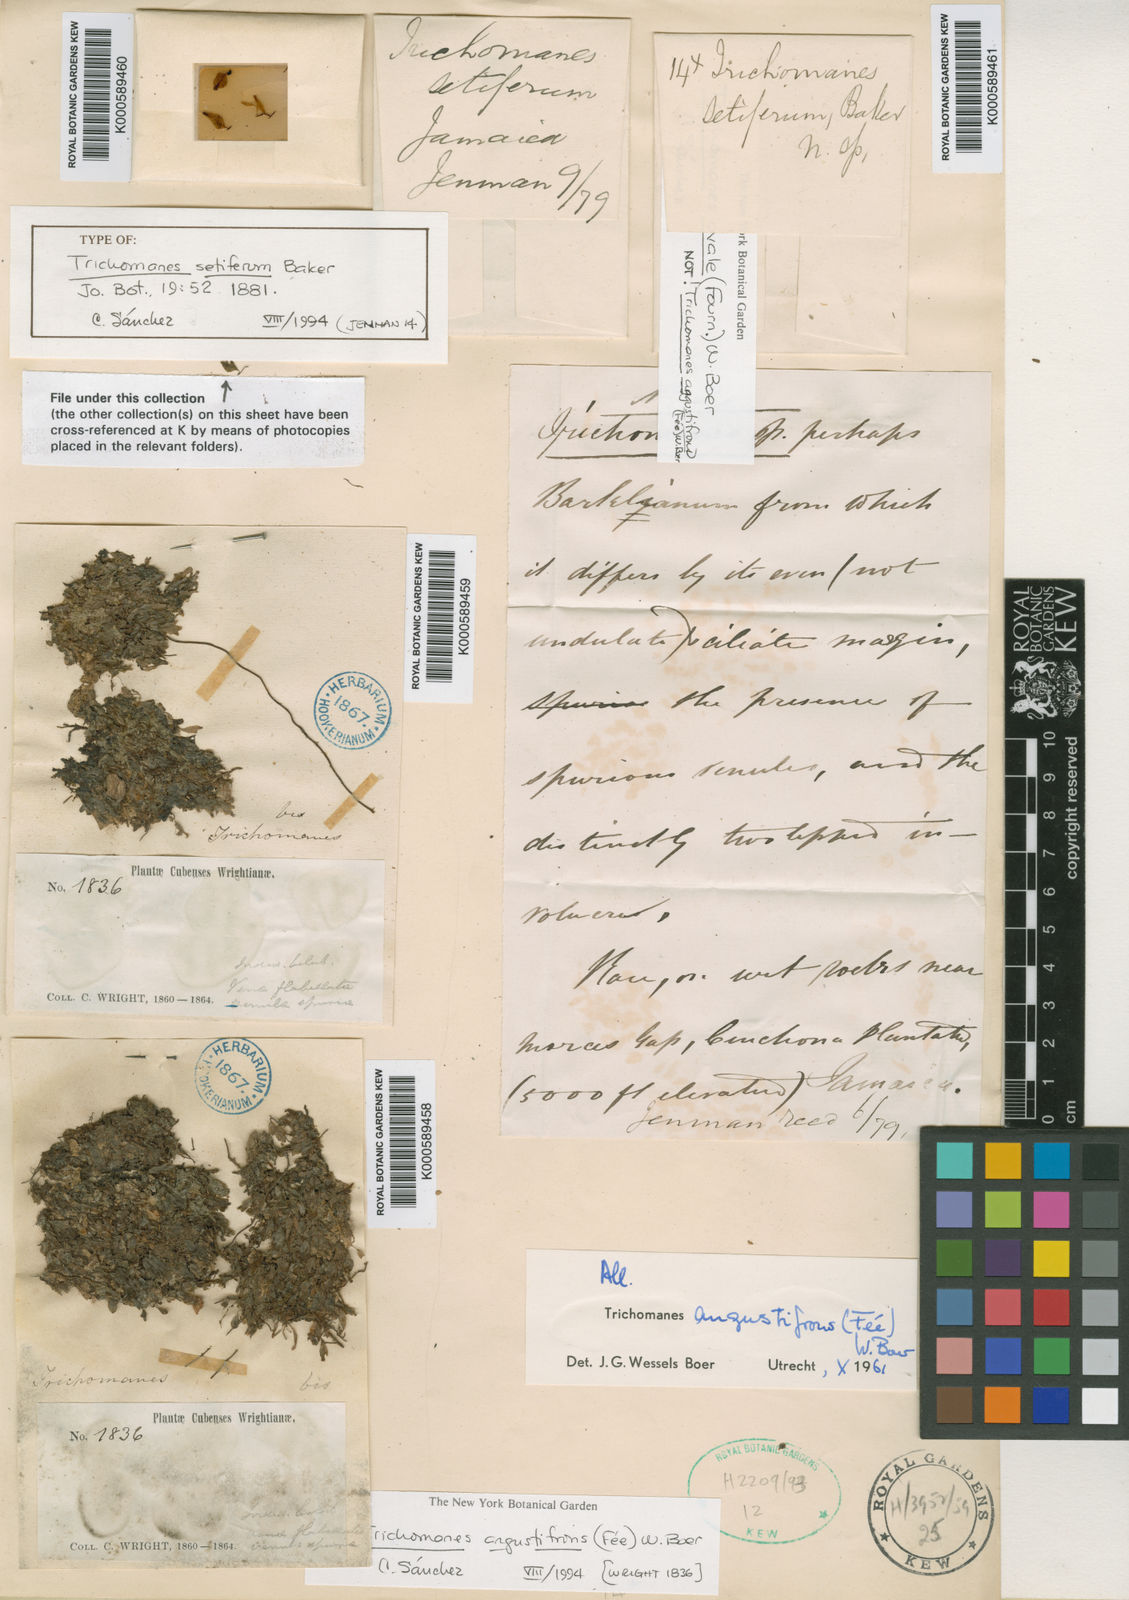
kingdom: Plantae
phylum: Tracheophyta
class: Polypodiopsida
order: Hymenophyllales
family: Hymenophyllaceae
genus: Trichomanes
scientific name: Trichomanes
